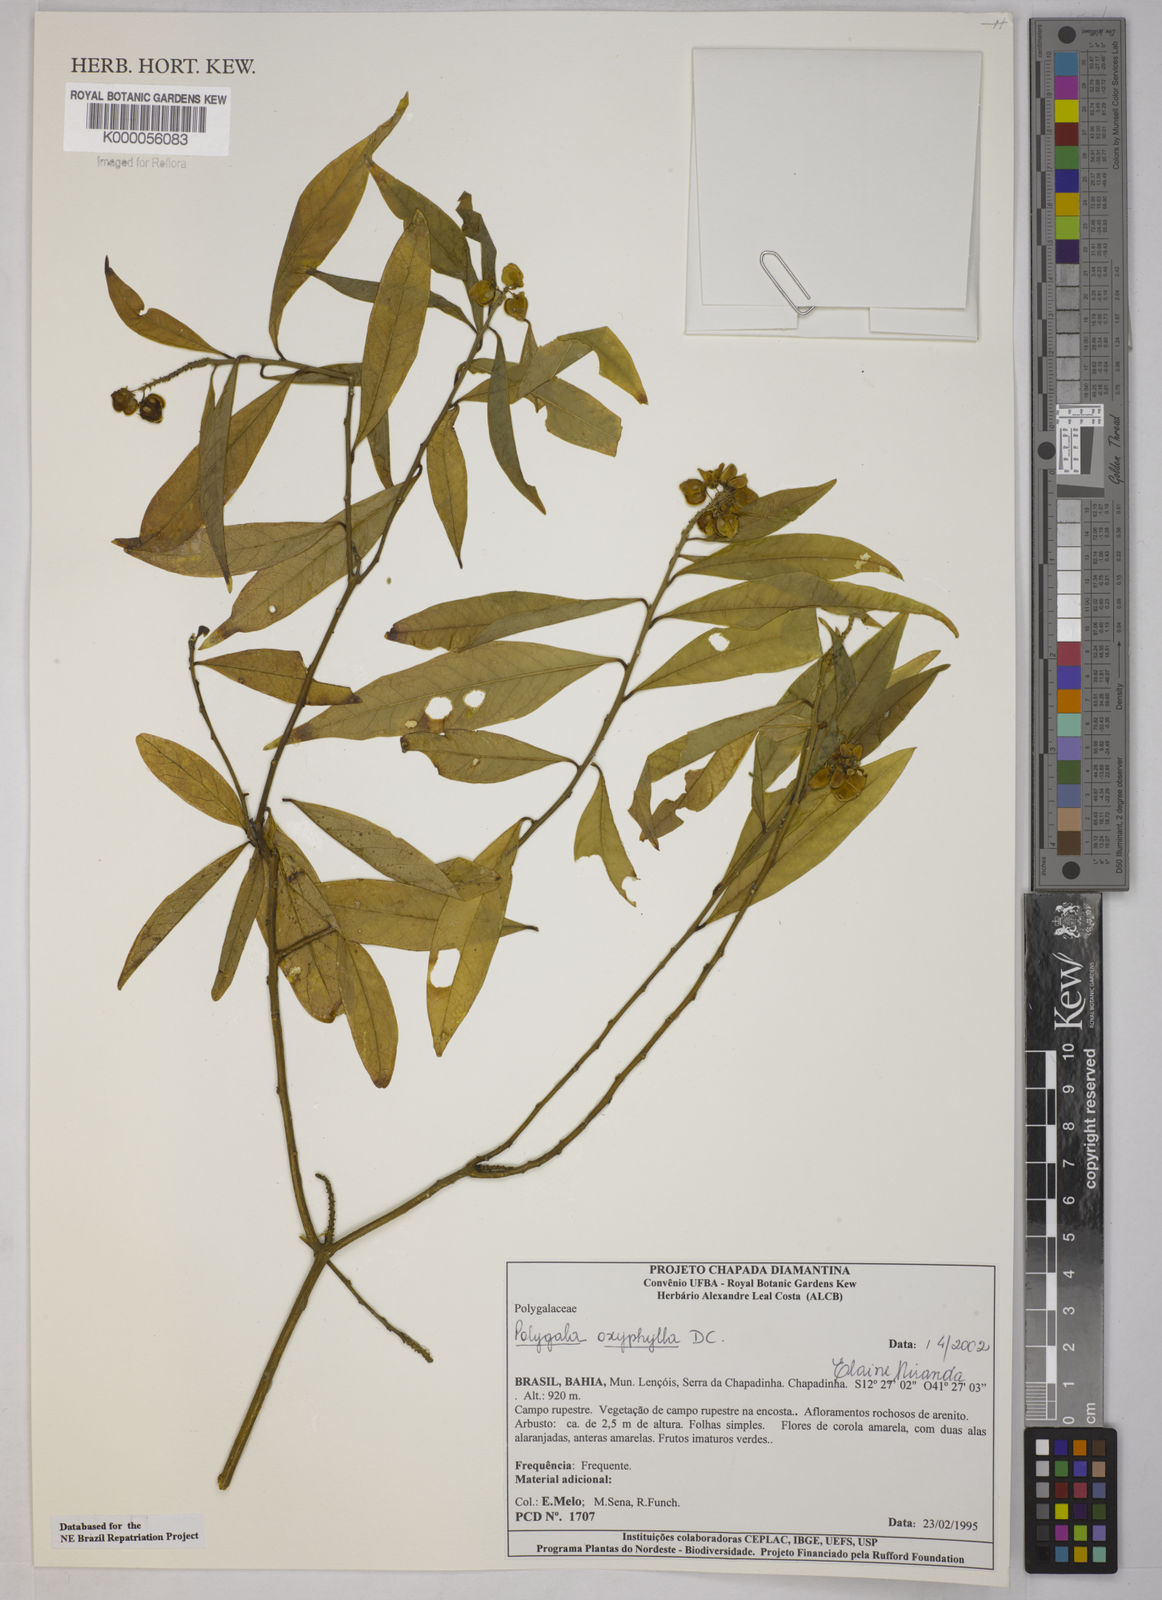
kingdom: Plantae
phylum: Tracheophyta
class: Magnoliopsida
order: Fabales
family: Polygalaceae
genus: Caamembeca
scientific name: Caamembeca oxyphylla
